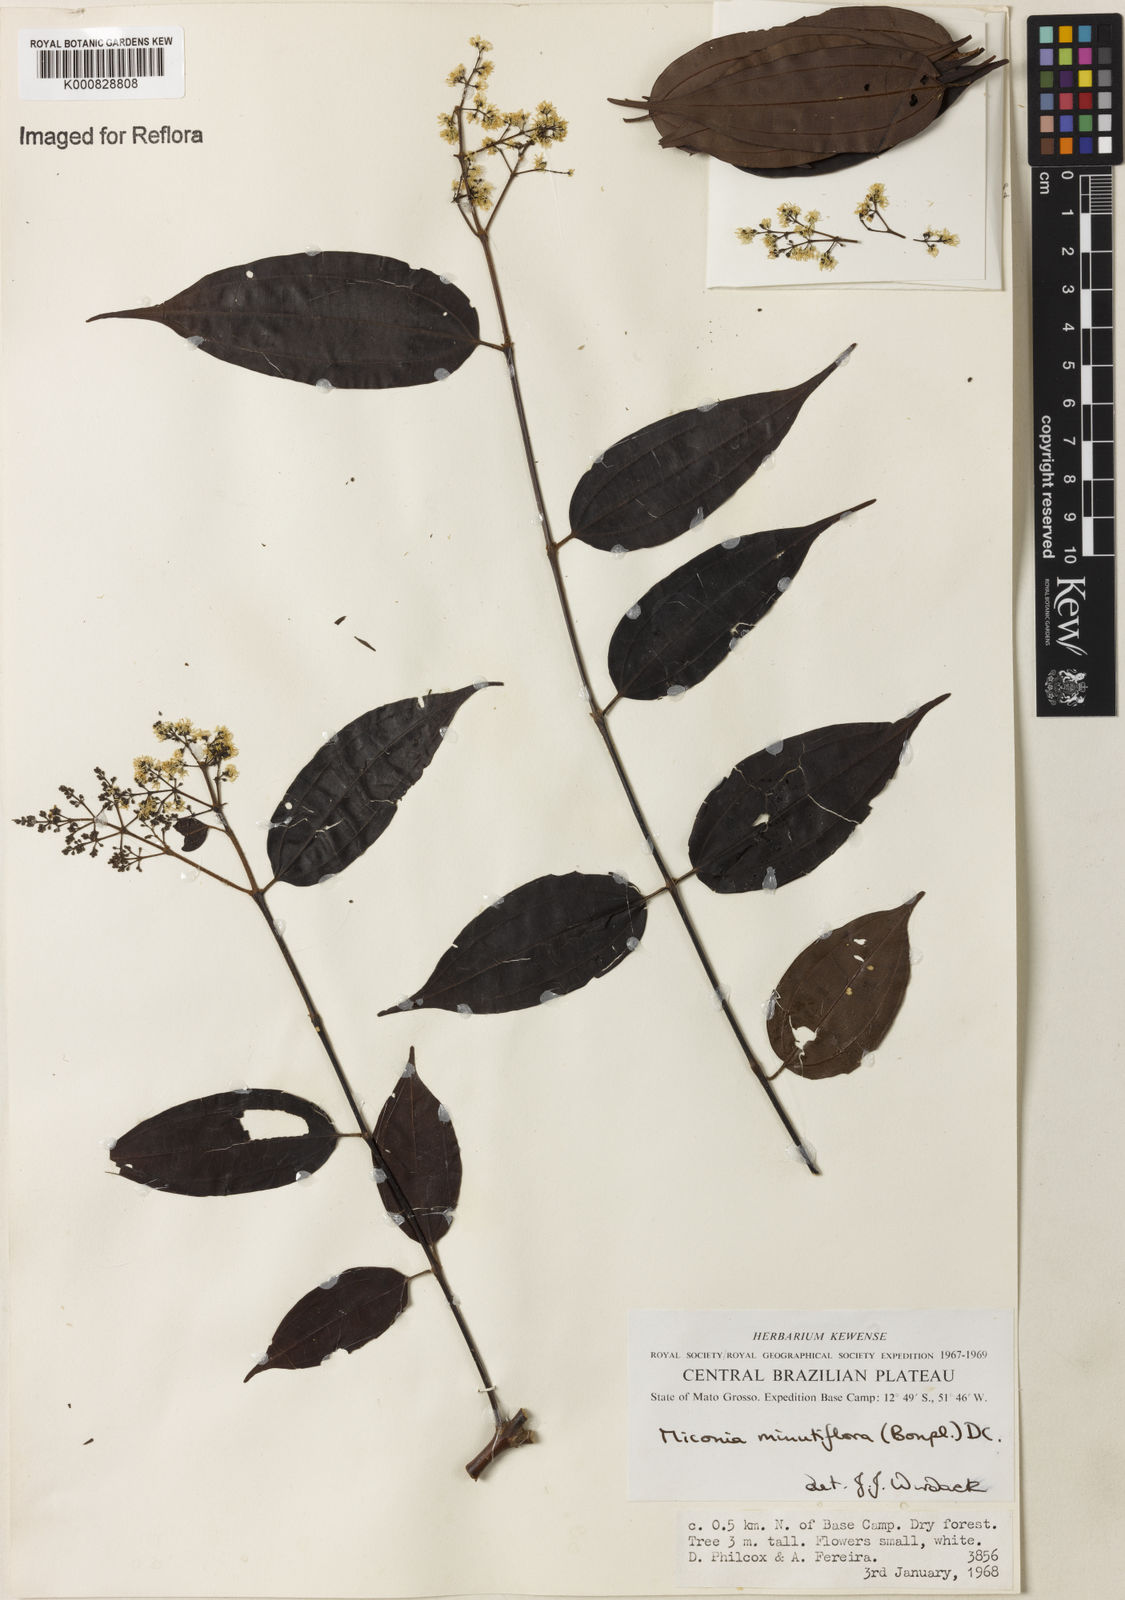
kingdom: Plantae
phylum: Tracheophyta
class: Magnoliopsida
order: Myrtales
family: Melastomataceae
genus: Miconia
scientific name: Miconia minutiflora
